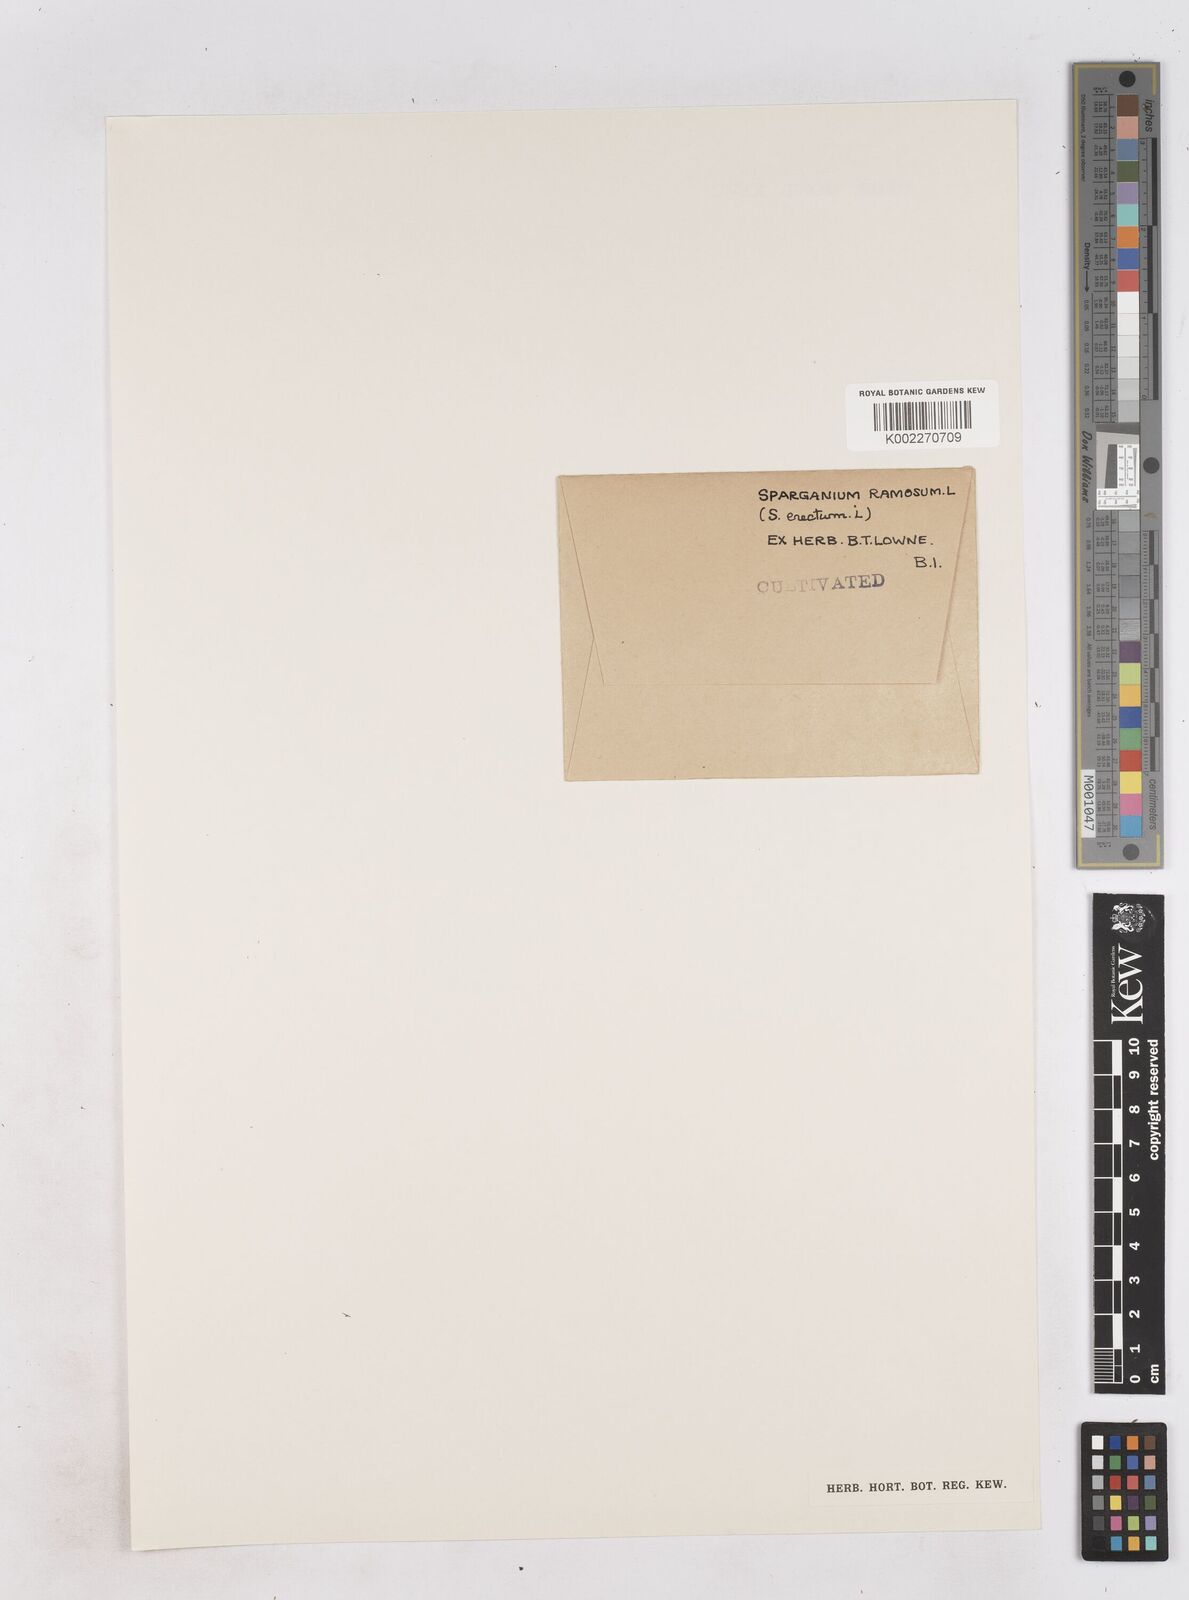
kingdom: Plantae
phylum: Tracheophyta
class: Liliopsida
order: Poales
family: Typhaceae
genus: Sparganium
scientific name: Sparganium erectum
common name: Branched bur-reed
